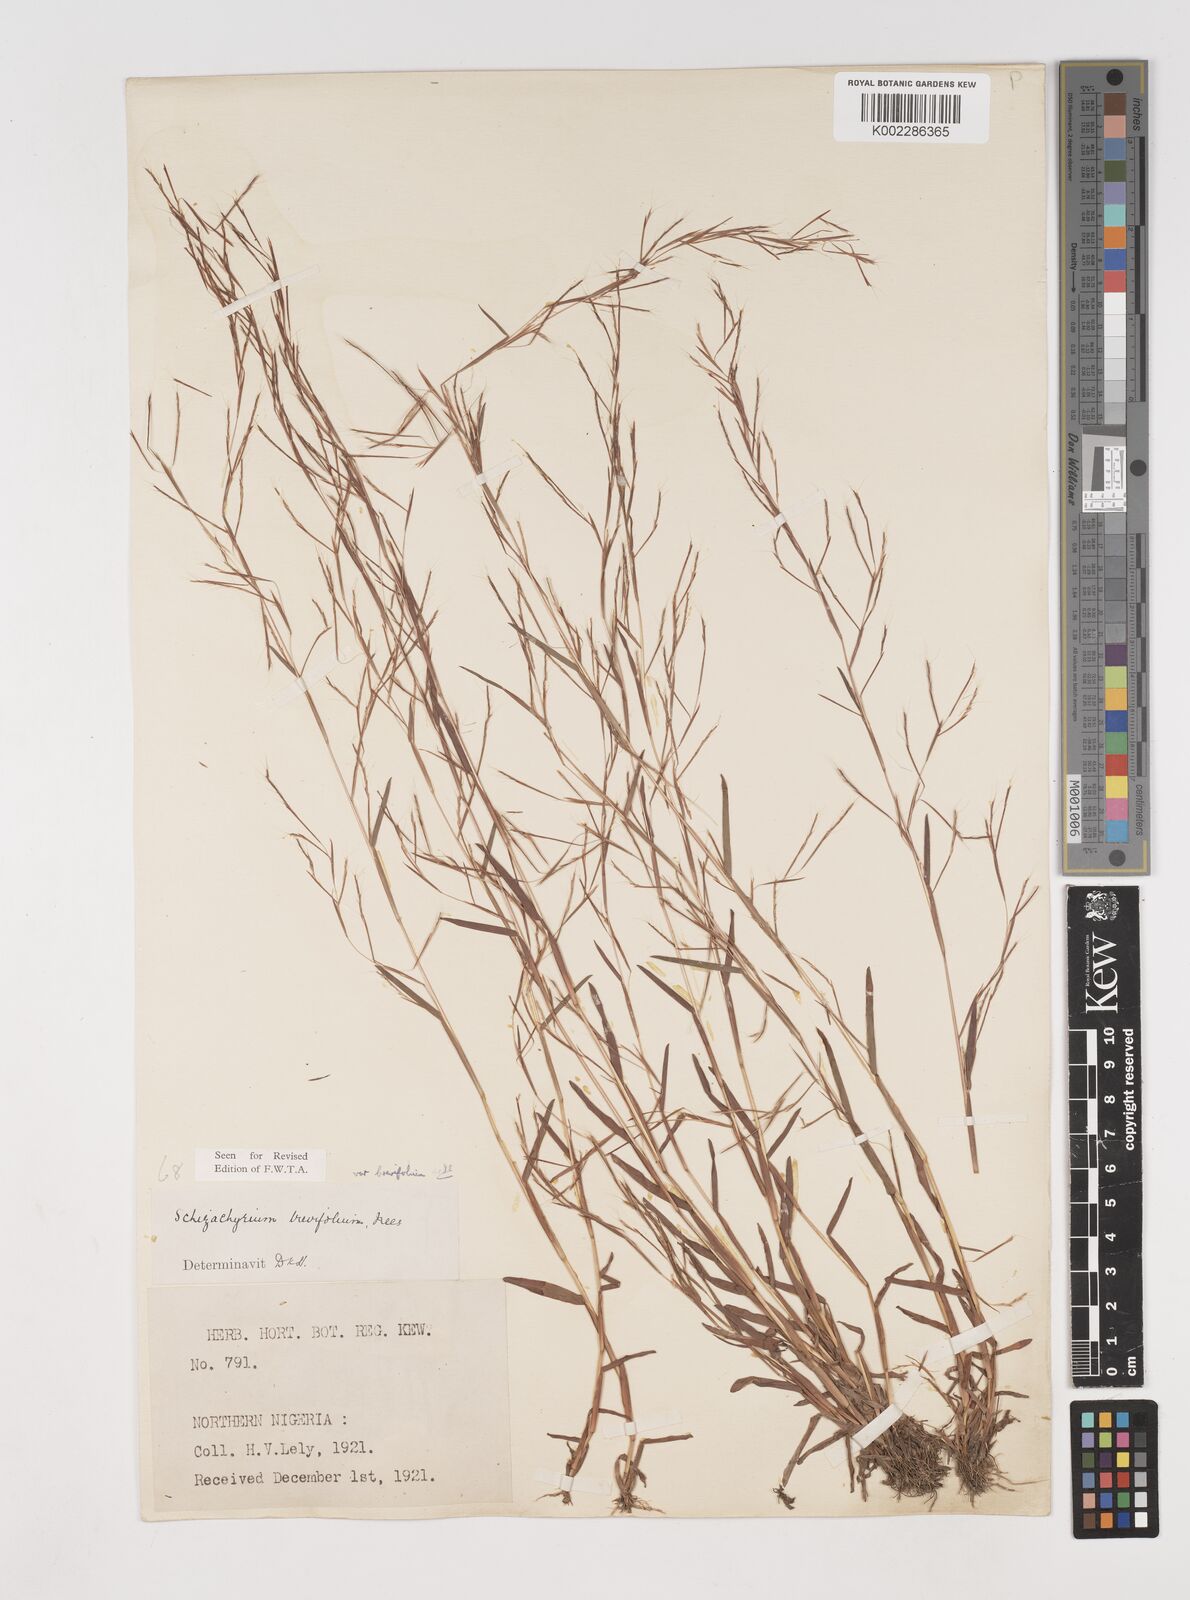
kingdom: Plantae
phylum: Tracheophyta
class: Liliopsida
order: Poales
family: Poaceae
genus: Schizachyrium
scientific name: Schizachyrium brevifolium
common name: Serillo dulce
